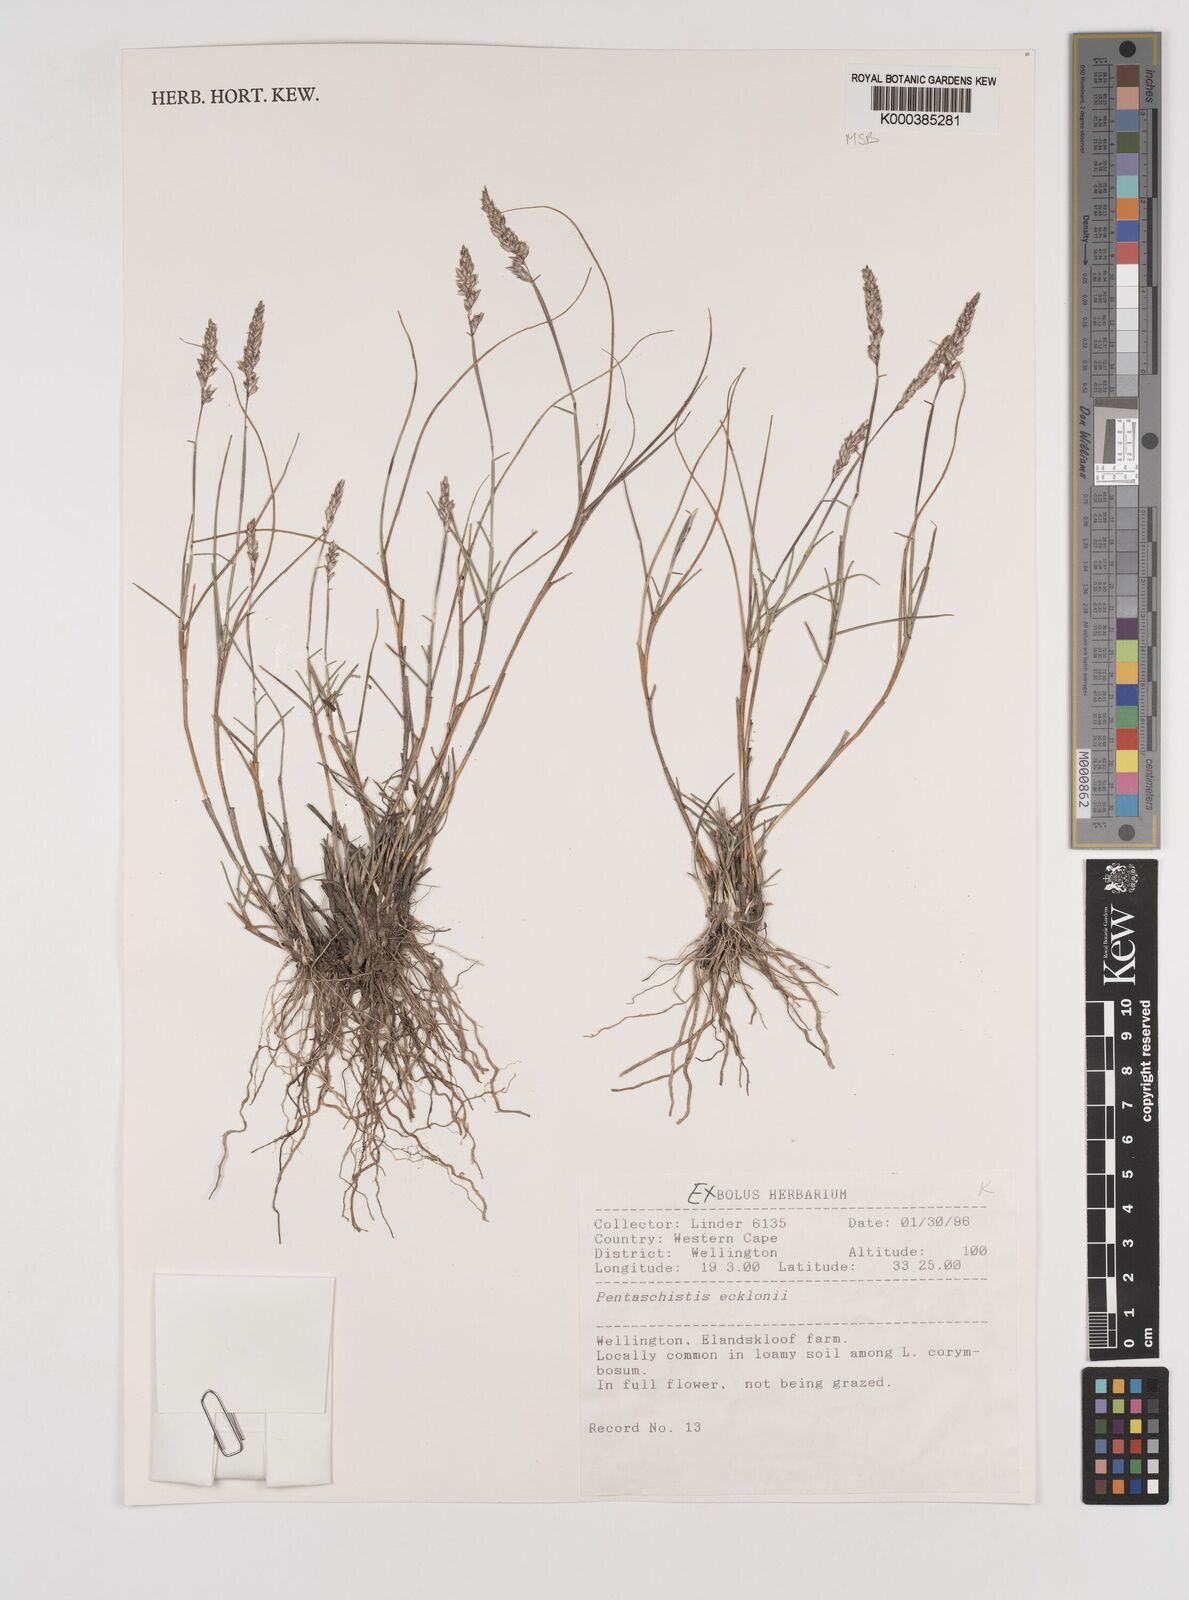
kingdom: Plantae
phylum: Tracheophyta
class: Liliopsida
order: Poales
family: Poaceae
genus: Pentameris
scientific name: Pentameris ecklonii
